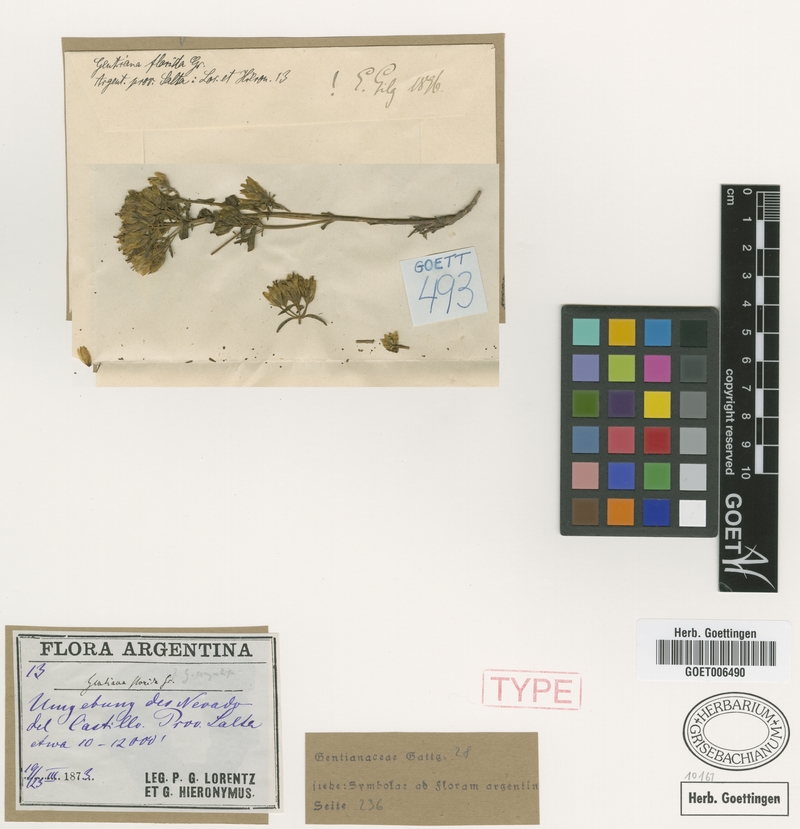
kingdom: Plantae
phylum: Tracheophyta
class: Magnoliopsida
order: Gentianales
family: Gentianaceae
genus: Gentianella
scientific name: Gentianella florida
